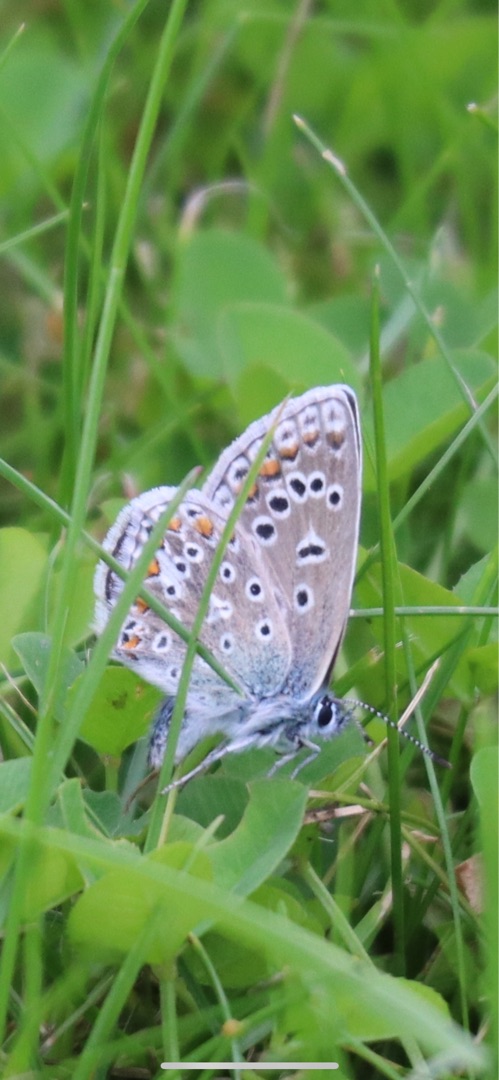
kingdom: Animalia
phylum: Arthropoda
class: Insecta
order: Lepidoptera
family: Lycaenidae
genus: Polyommatus
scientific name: Polyommatus icarus
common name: Almindelig blåfugl
